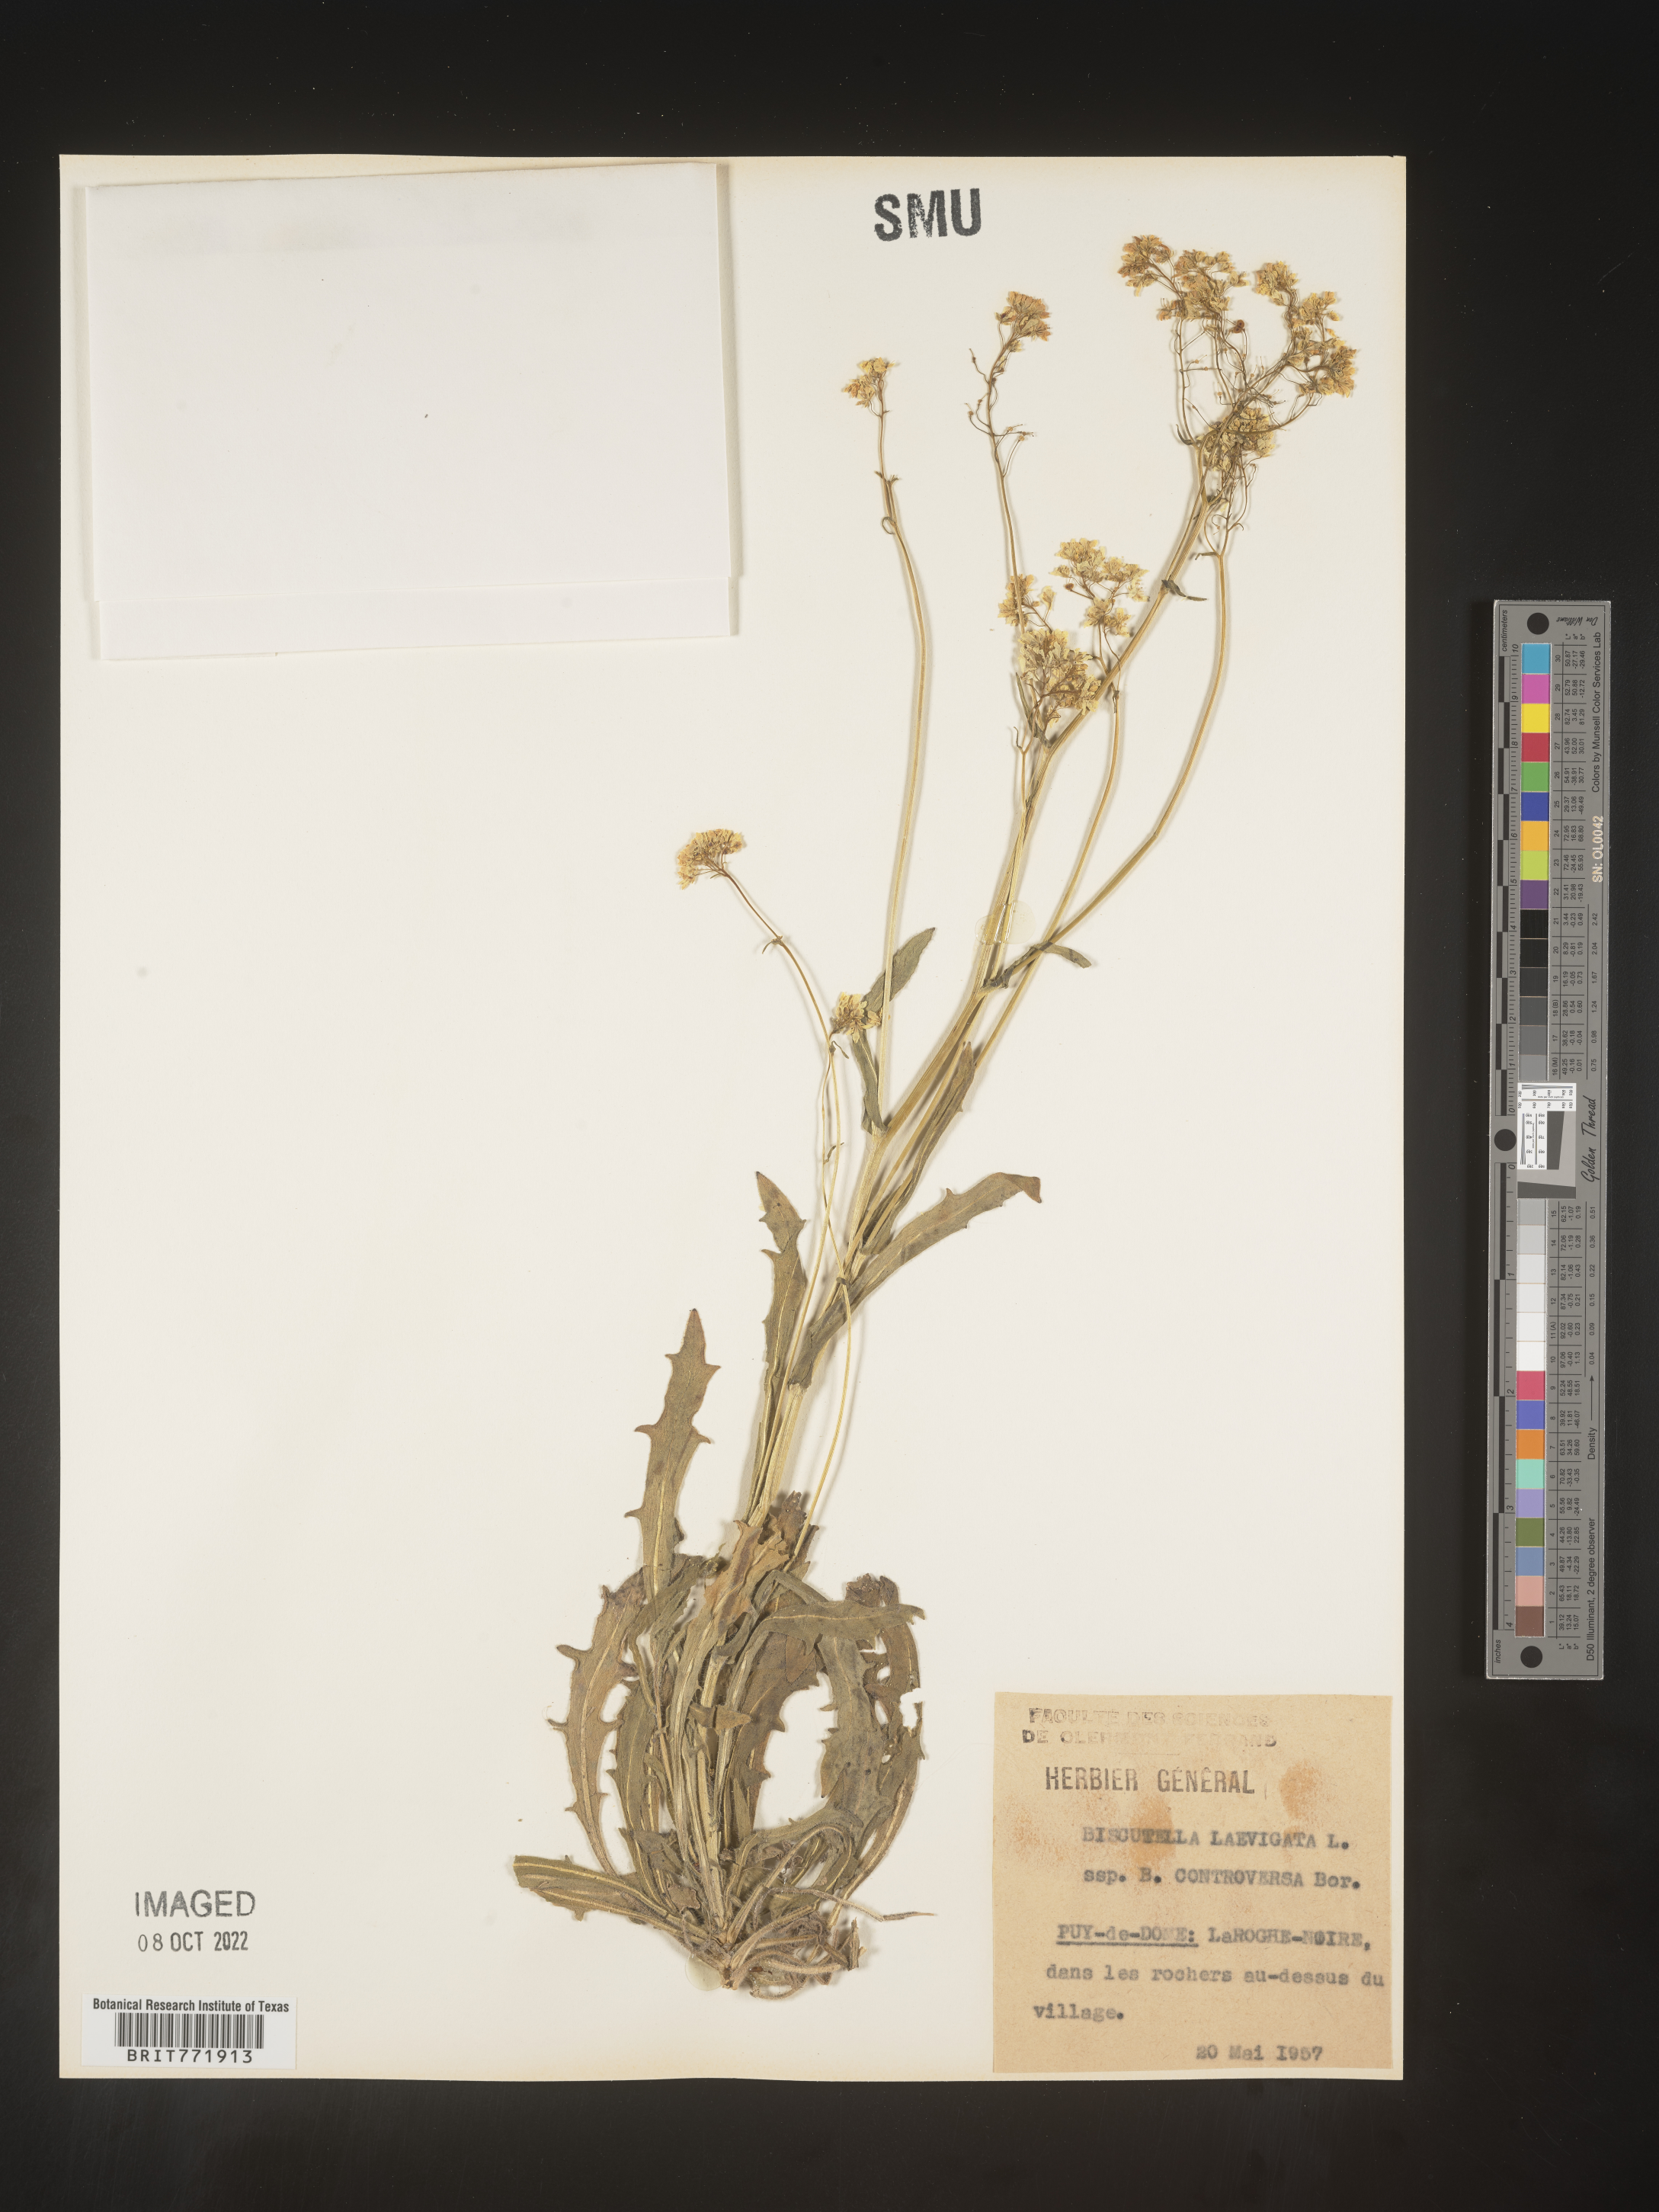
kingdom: Plantae
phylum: Tracheophyta
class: Magnoliopsida
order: Brassicales
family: Brassicaceae
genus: Biscutella
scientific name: Biscutella
